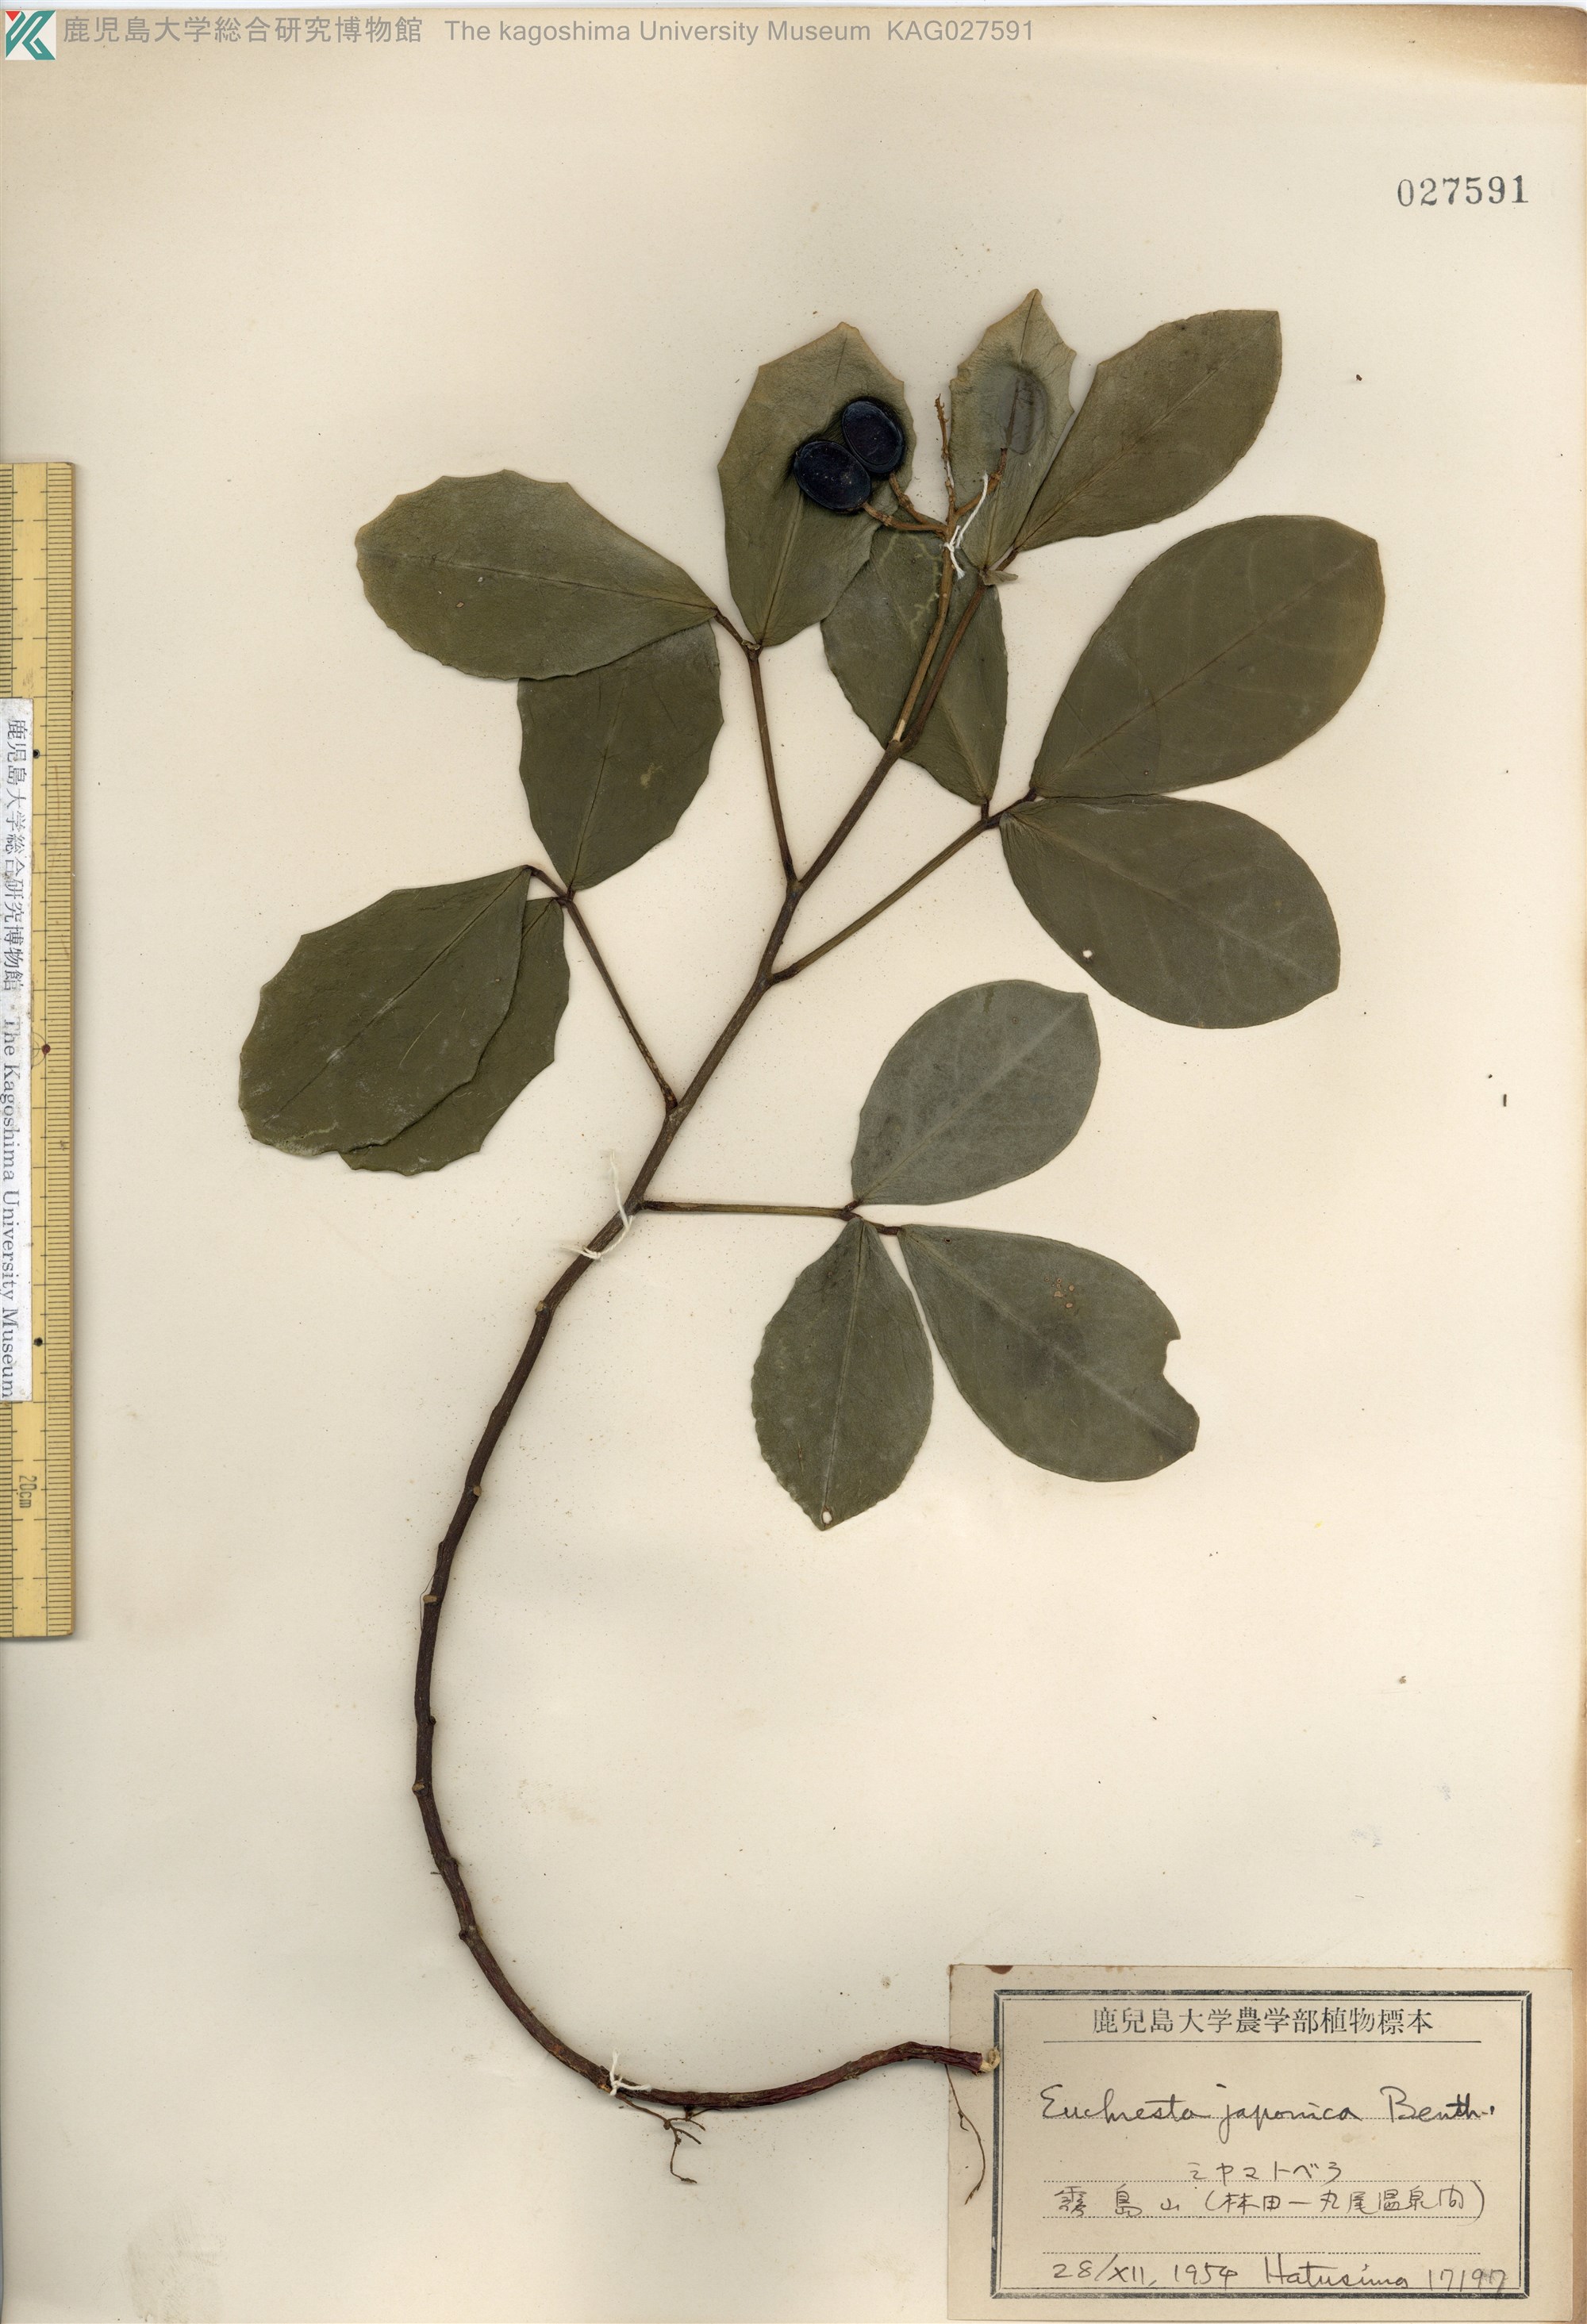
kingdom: Plantae
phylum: Tracheophyta
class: Magnoliopsida
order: Fabales
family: Fabaceae
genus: Euchresta
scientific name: Euchresta japonica
